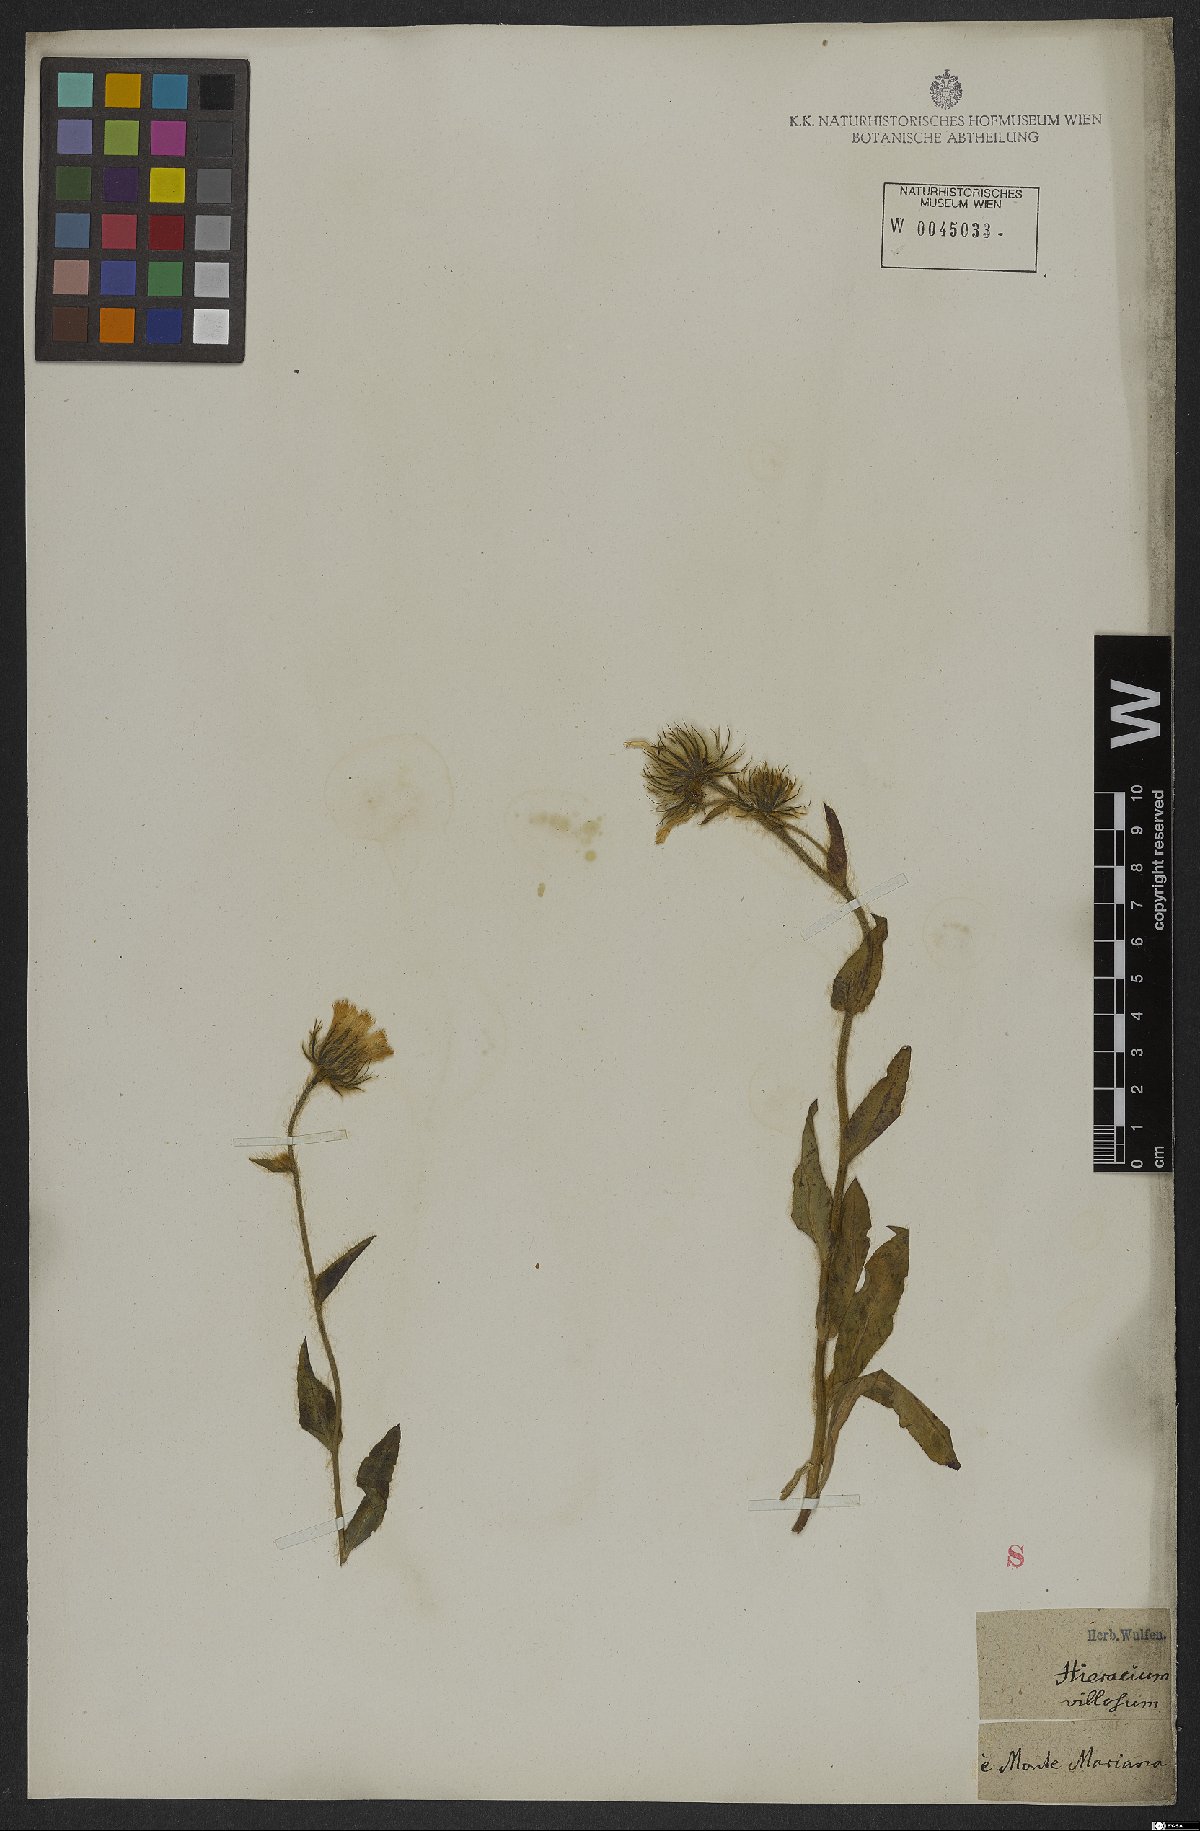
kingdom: Plantae
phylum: Tracheophyta
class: Magnoliopsida
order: Asterales
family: Asteraceae
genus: Hieracium
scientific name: Hieracium villosum
